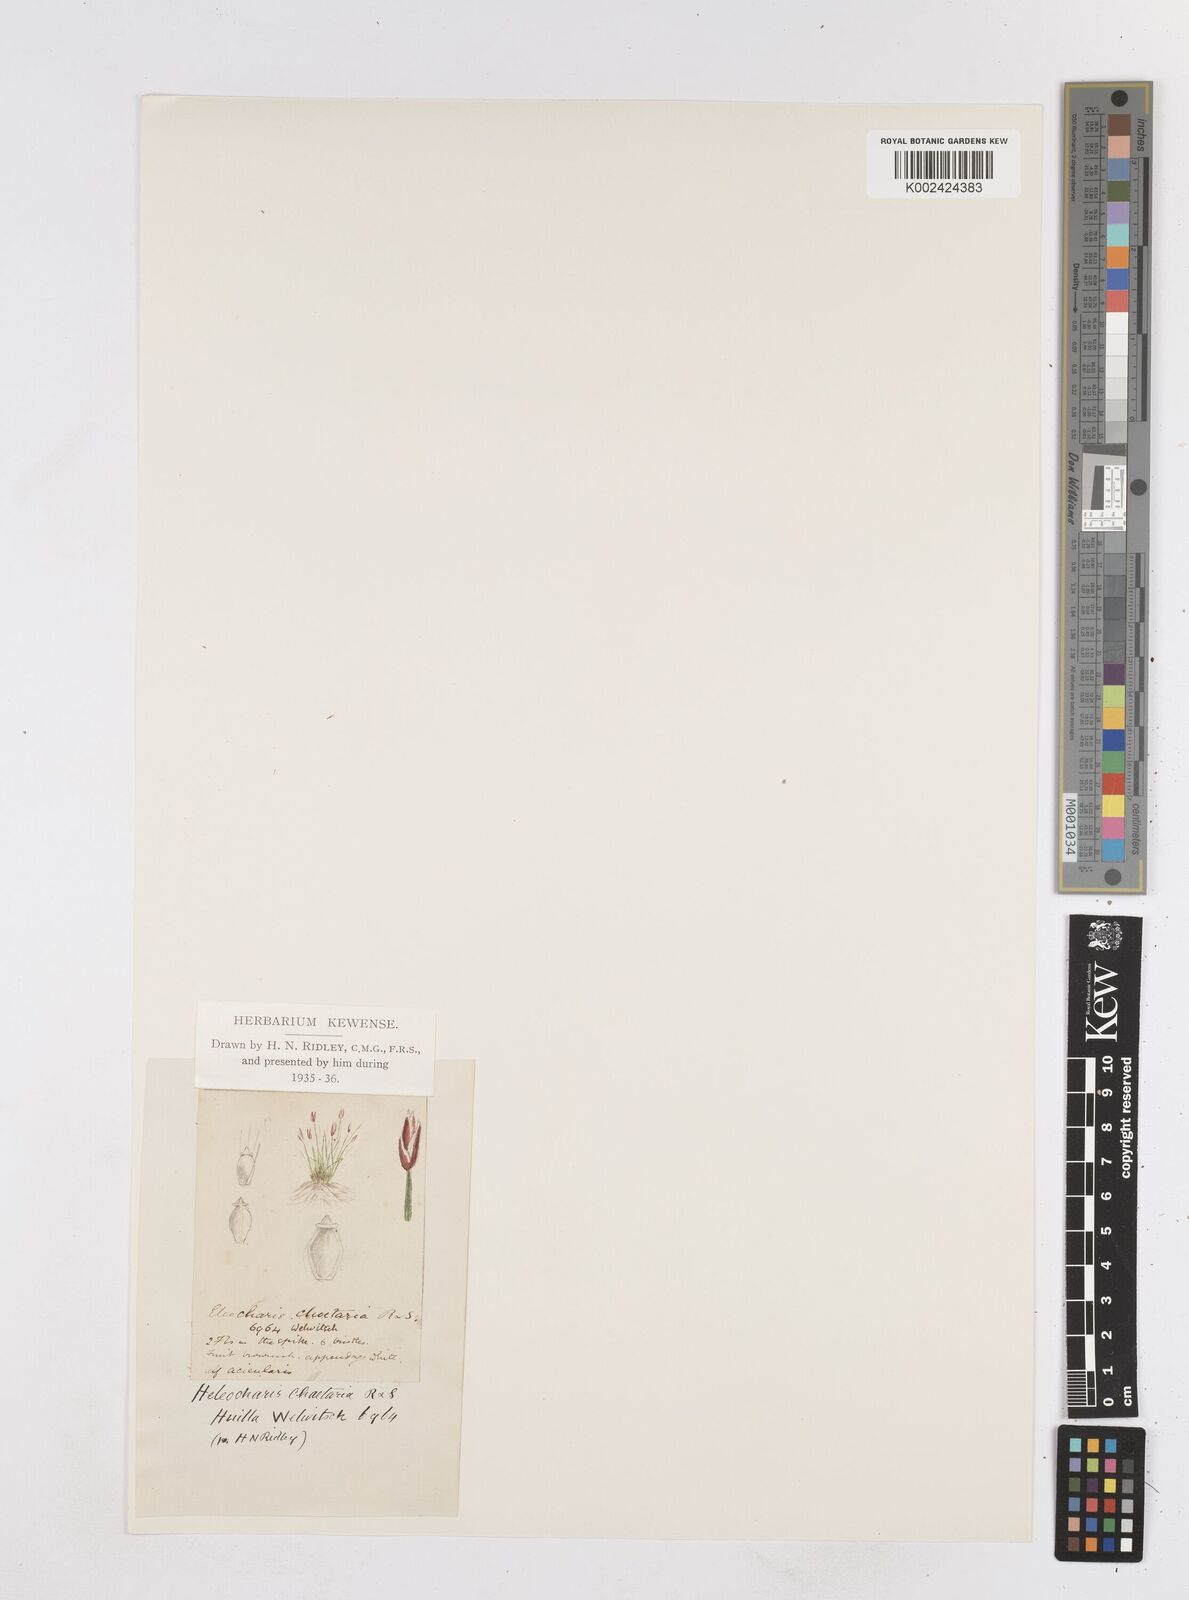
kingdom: Plantae
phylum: Tracheophyta
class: Liliopsida
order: Poales
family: Cyperaceae
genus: Eleocharis
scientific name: Eleocharis retroflexa
